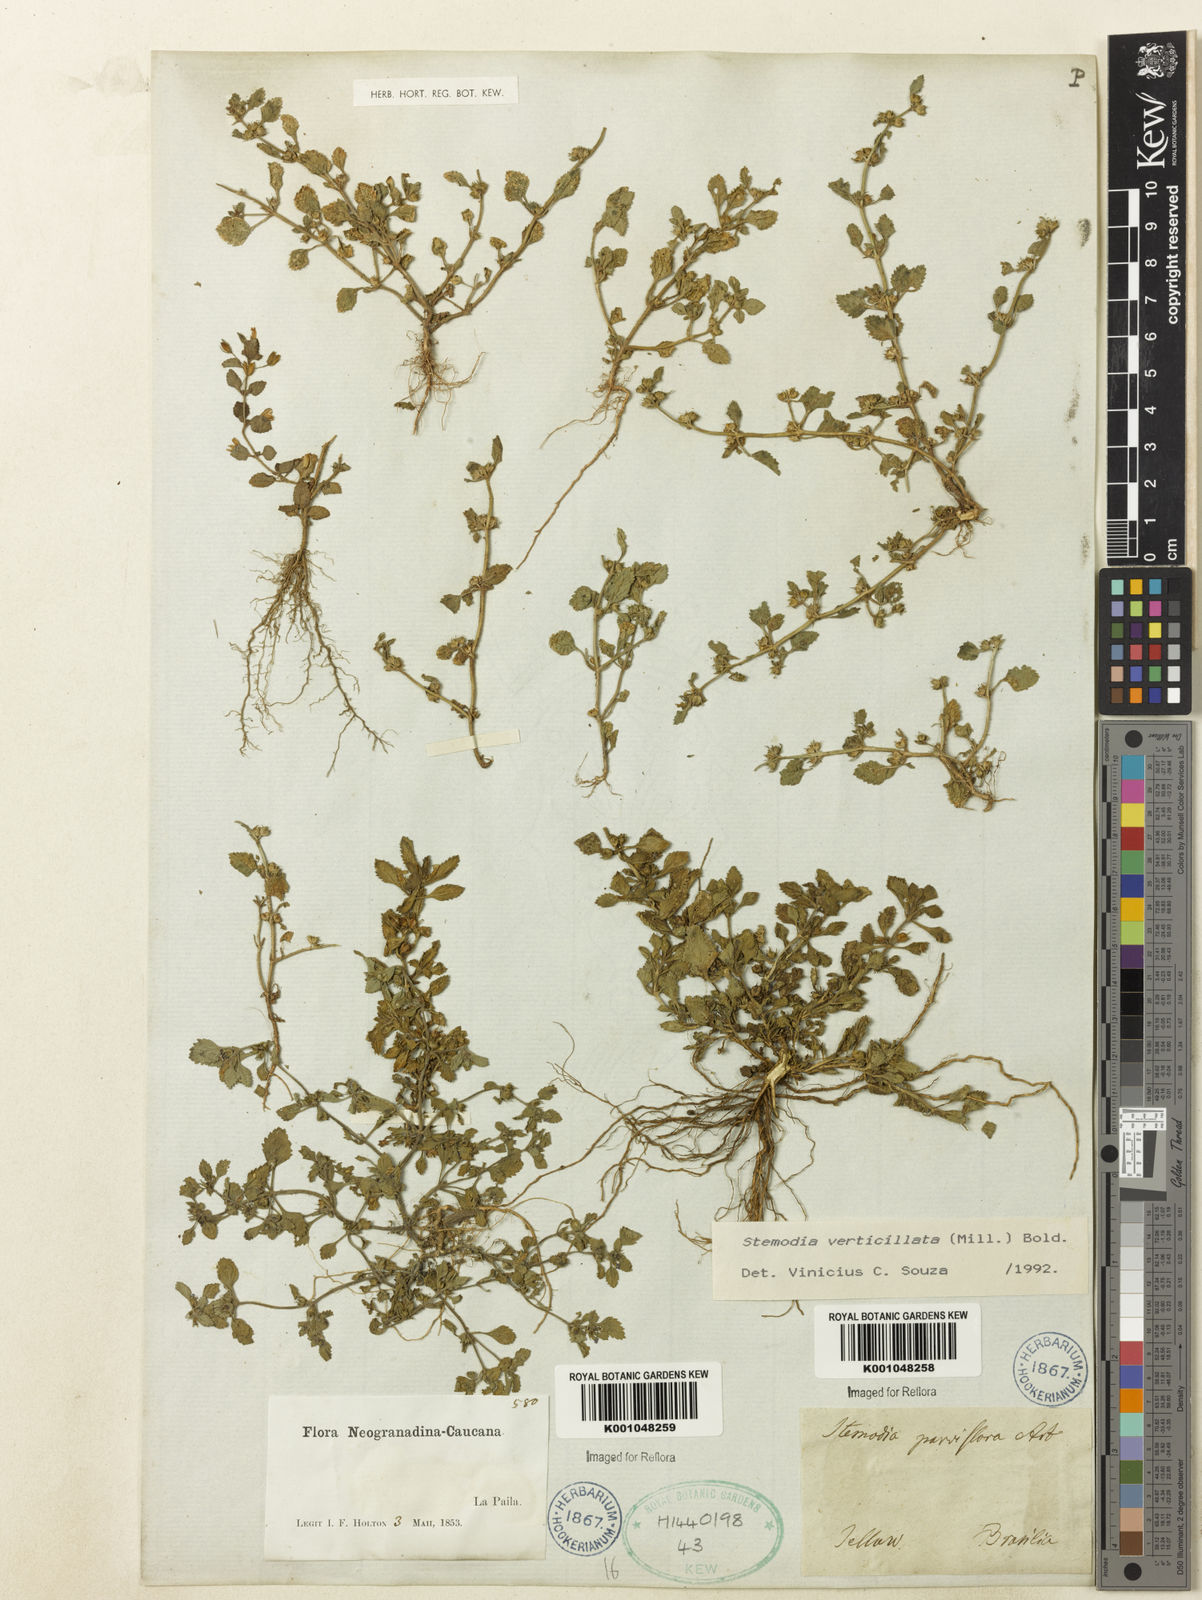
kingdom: Plantae
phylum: Tracheophyta
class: Magnoliopsida
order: Lamiales
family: Plantaginaceae
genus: Stemodia
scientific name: Stemodia verticillata
